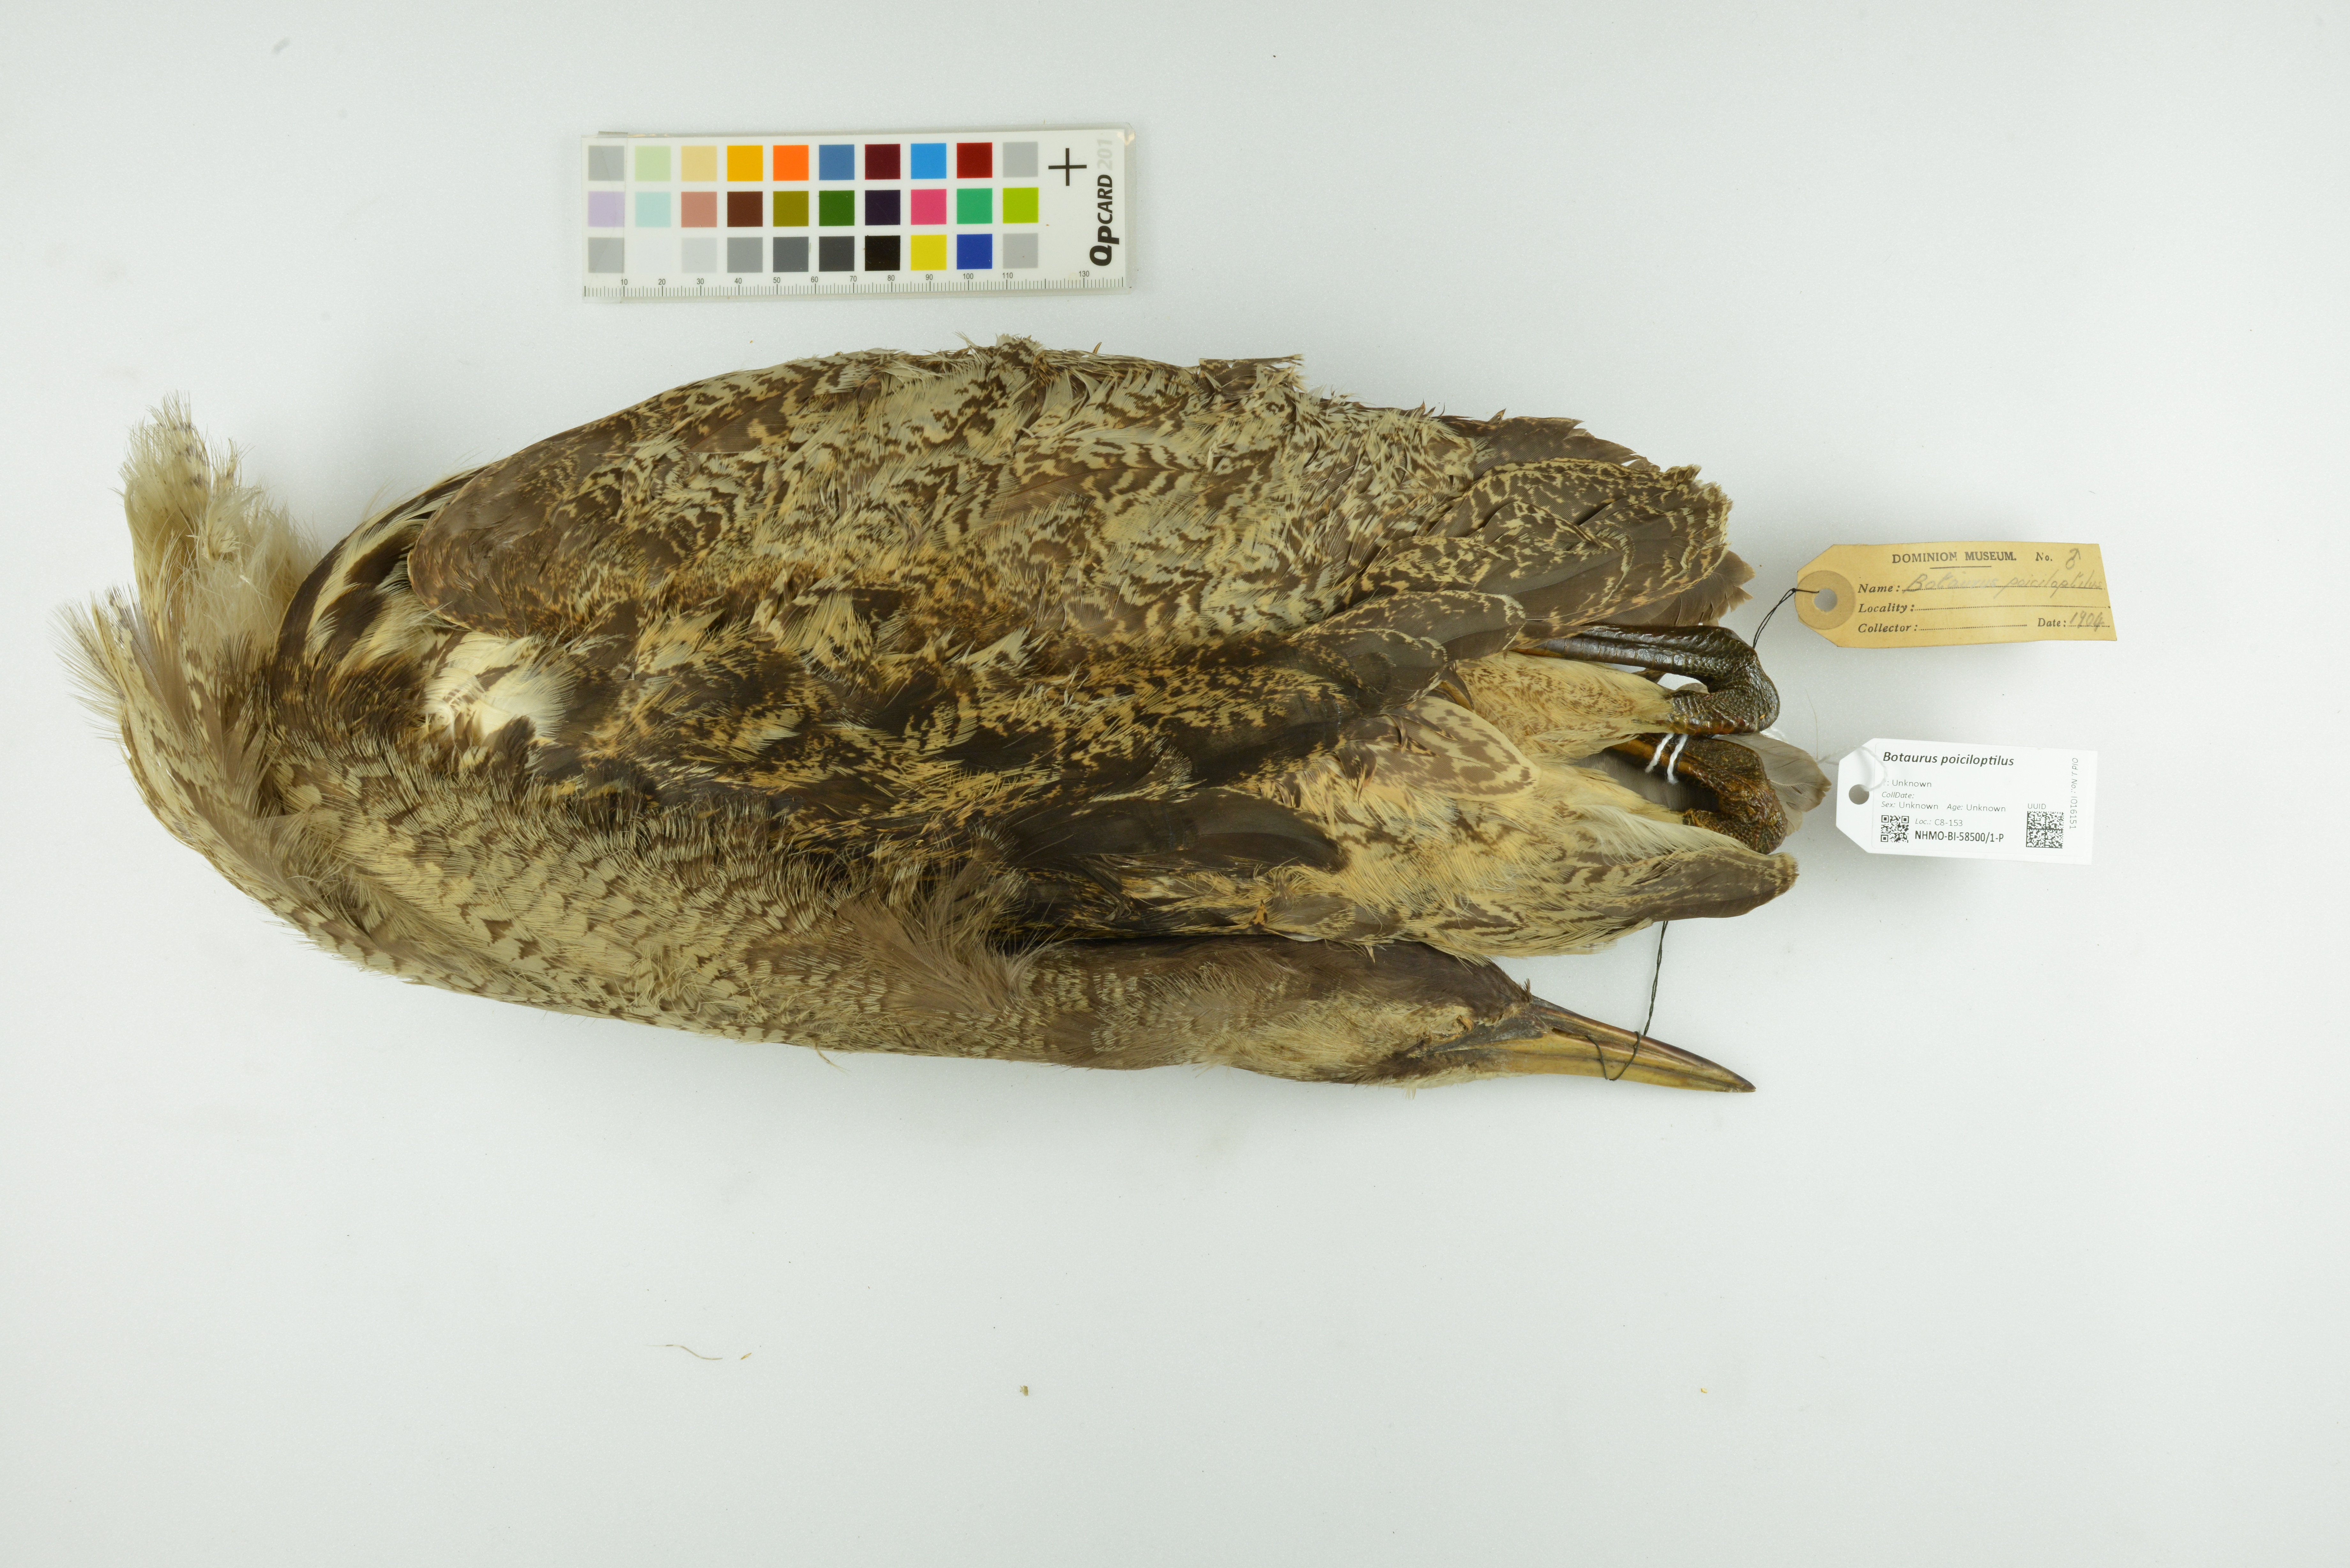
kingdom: Animalia
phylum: Chordata
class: Aves
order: Pelecaniformes
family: Ardeidae
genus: Botaurus
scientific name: Botaurus poiciloptilus
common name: Australasian bittern
